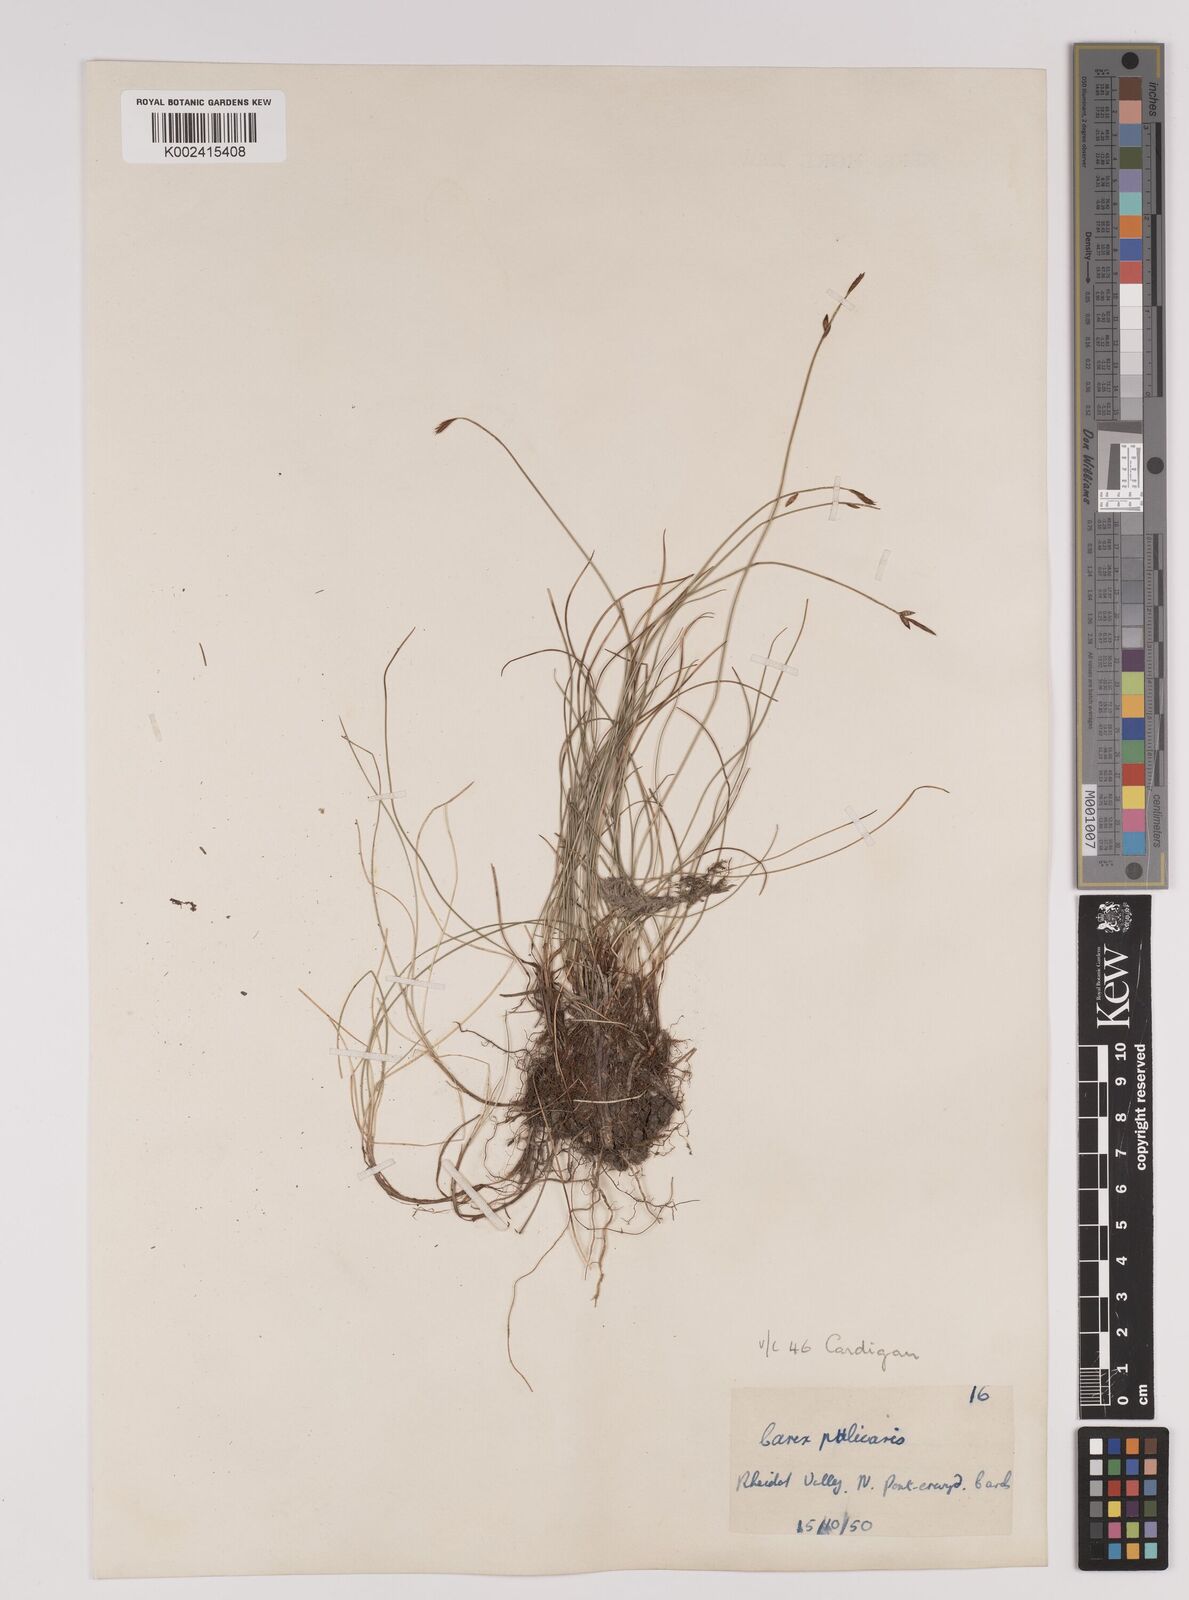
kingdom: Plantae
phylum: Tracheophyta
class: Liliopsida
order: Poales
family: Cyperaceae
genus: Carex
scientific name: Carex pulicaris
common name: Flea sedge
